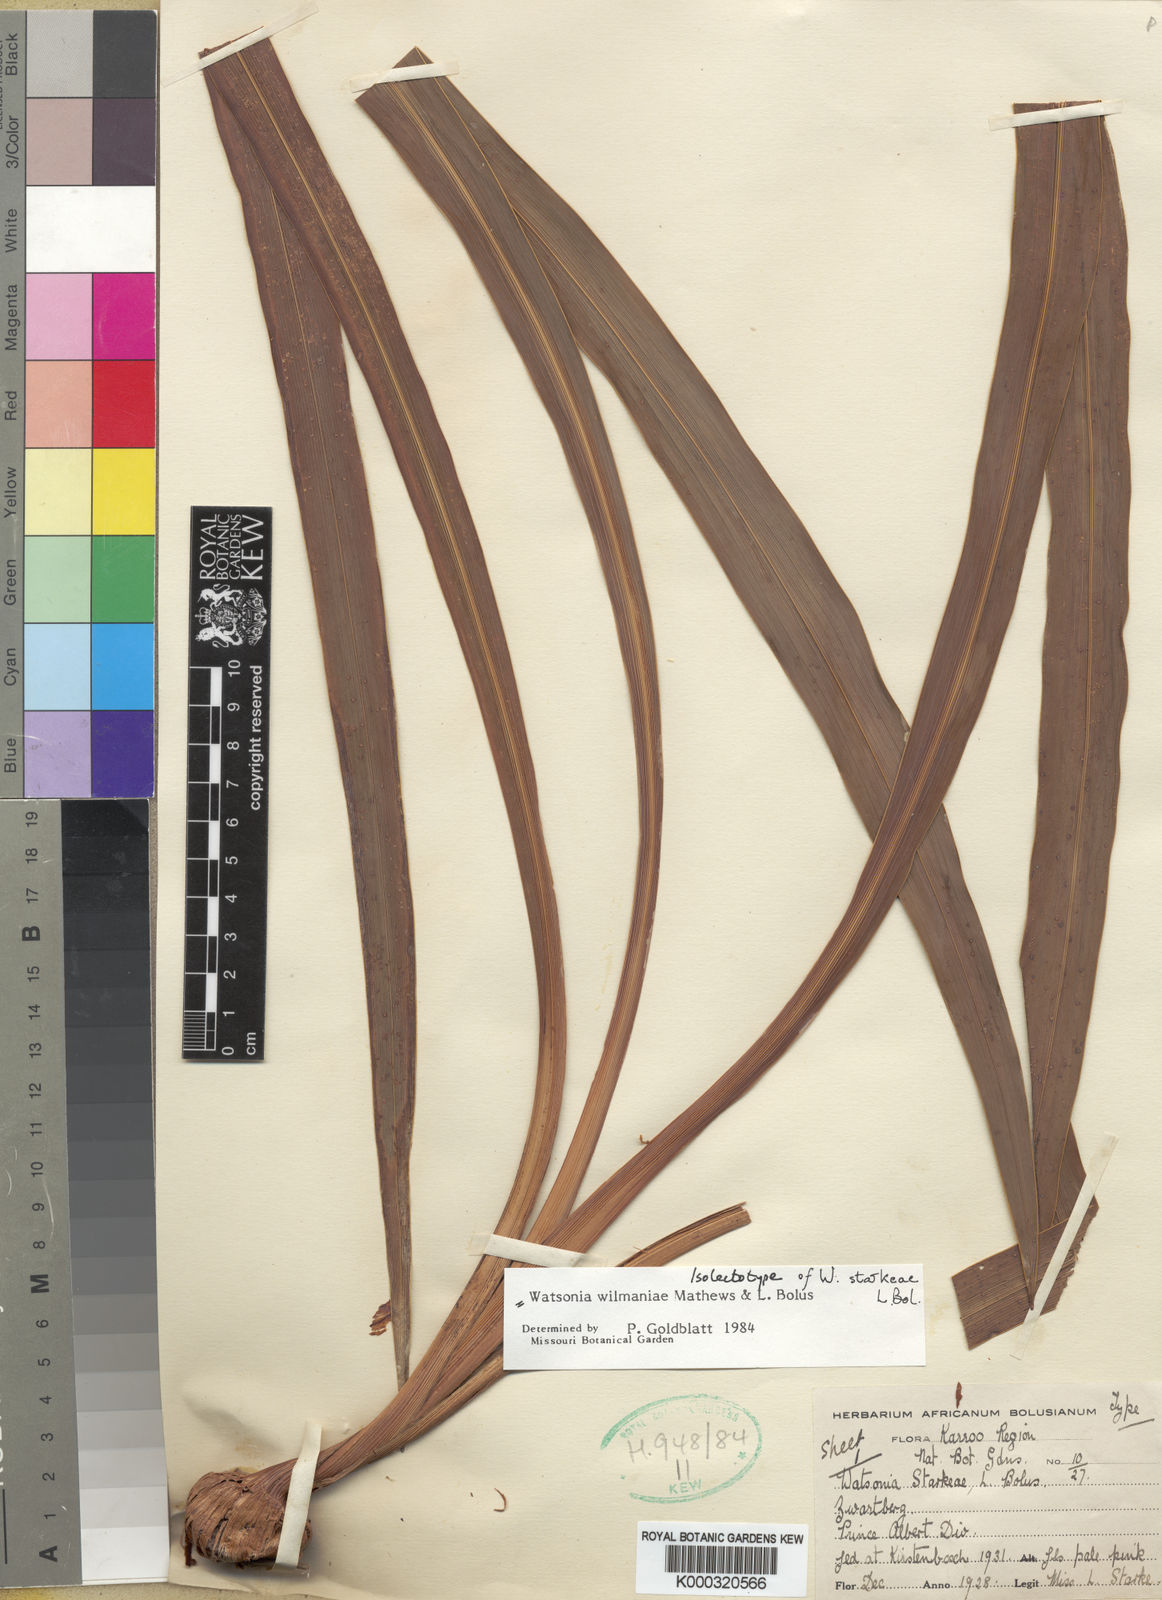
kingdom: Plantae
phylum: Tracheophyta
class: Liliopsida
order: Asparagales
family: Iridaceae
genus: Watsonia
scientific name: Watsonia wilmaniae
